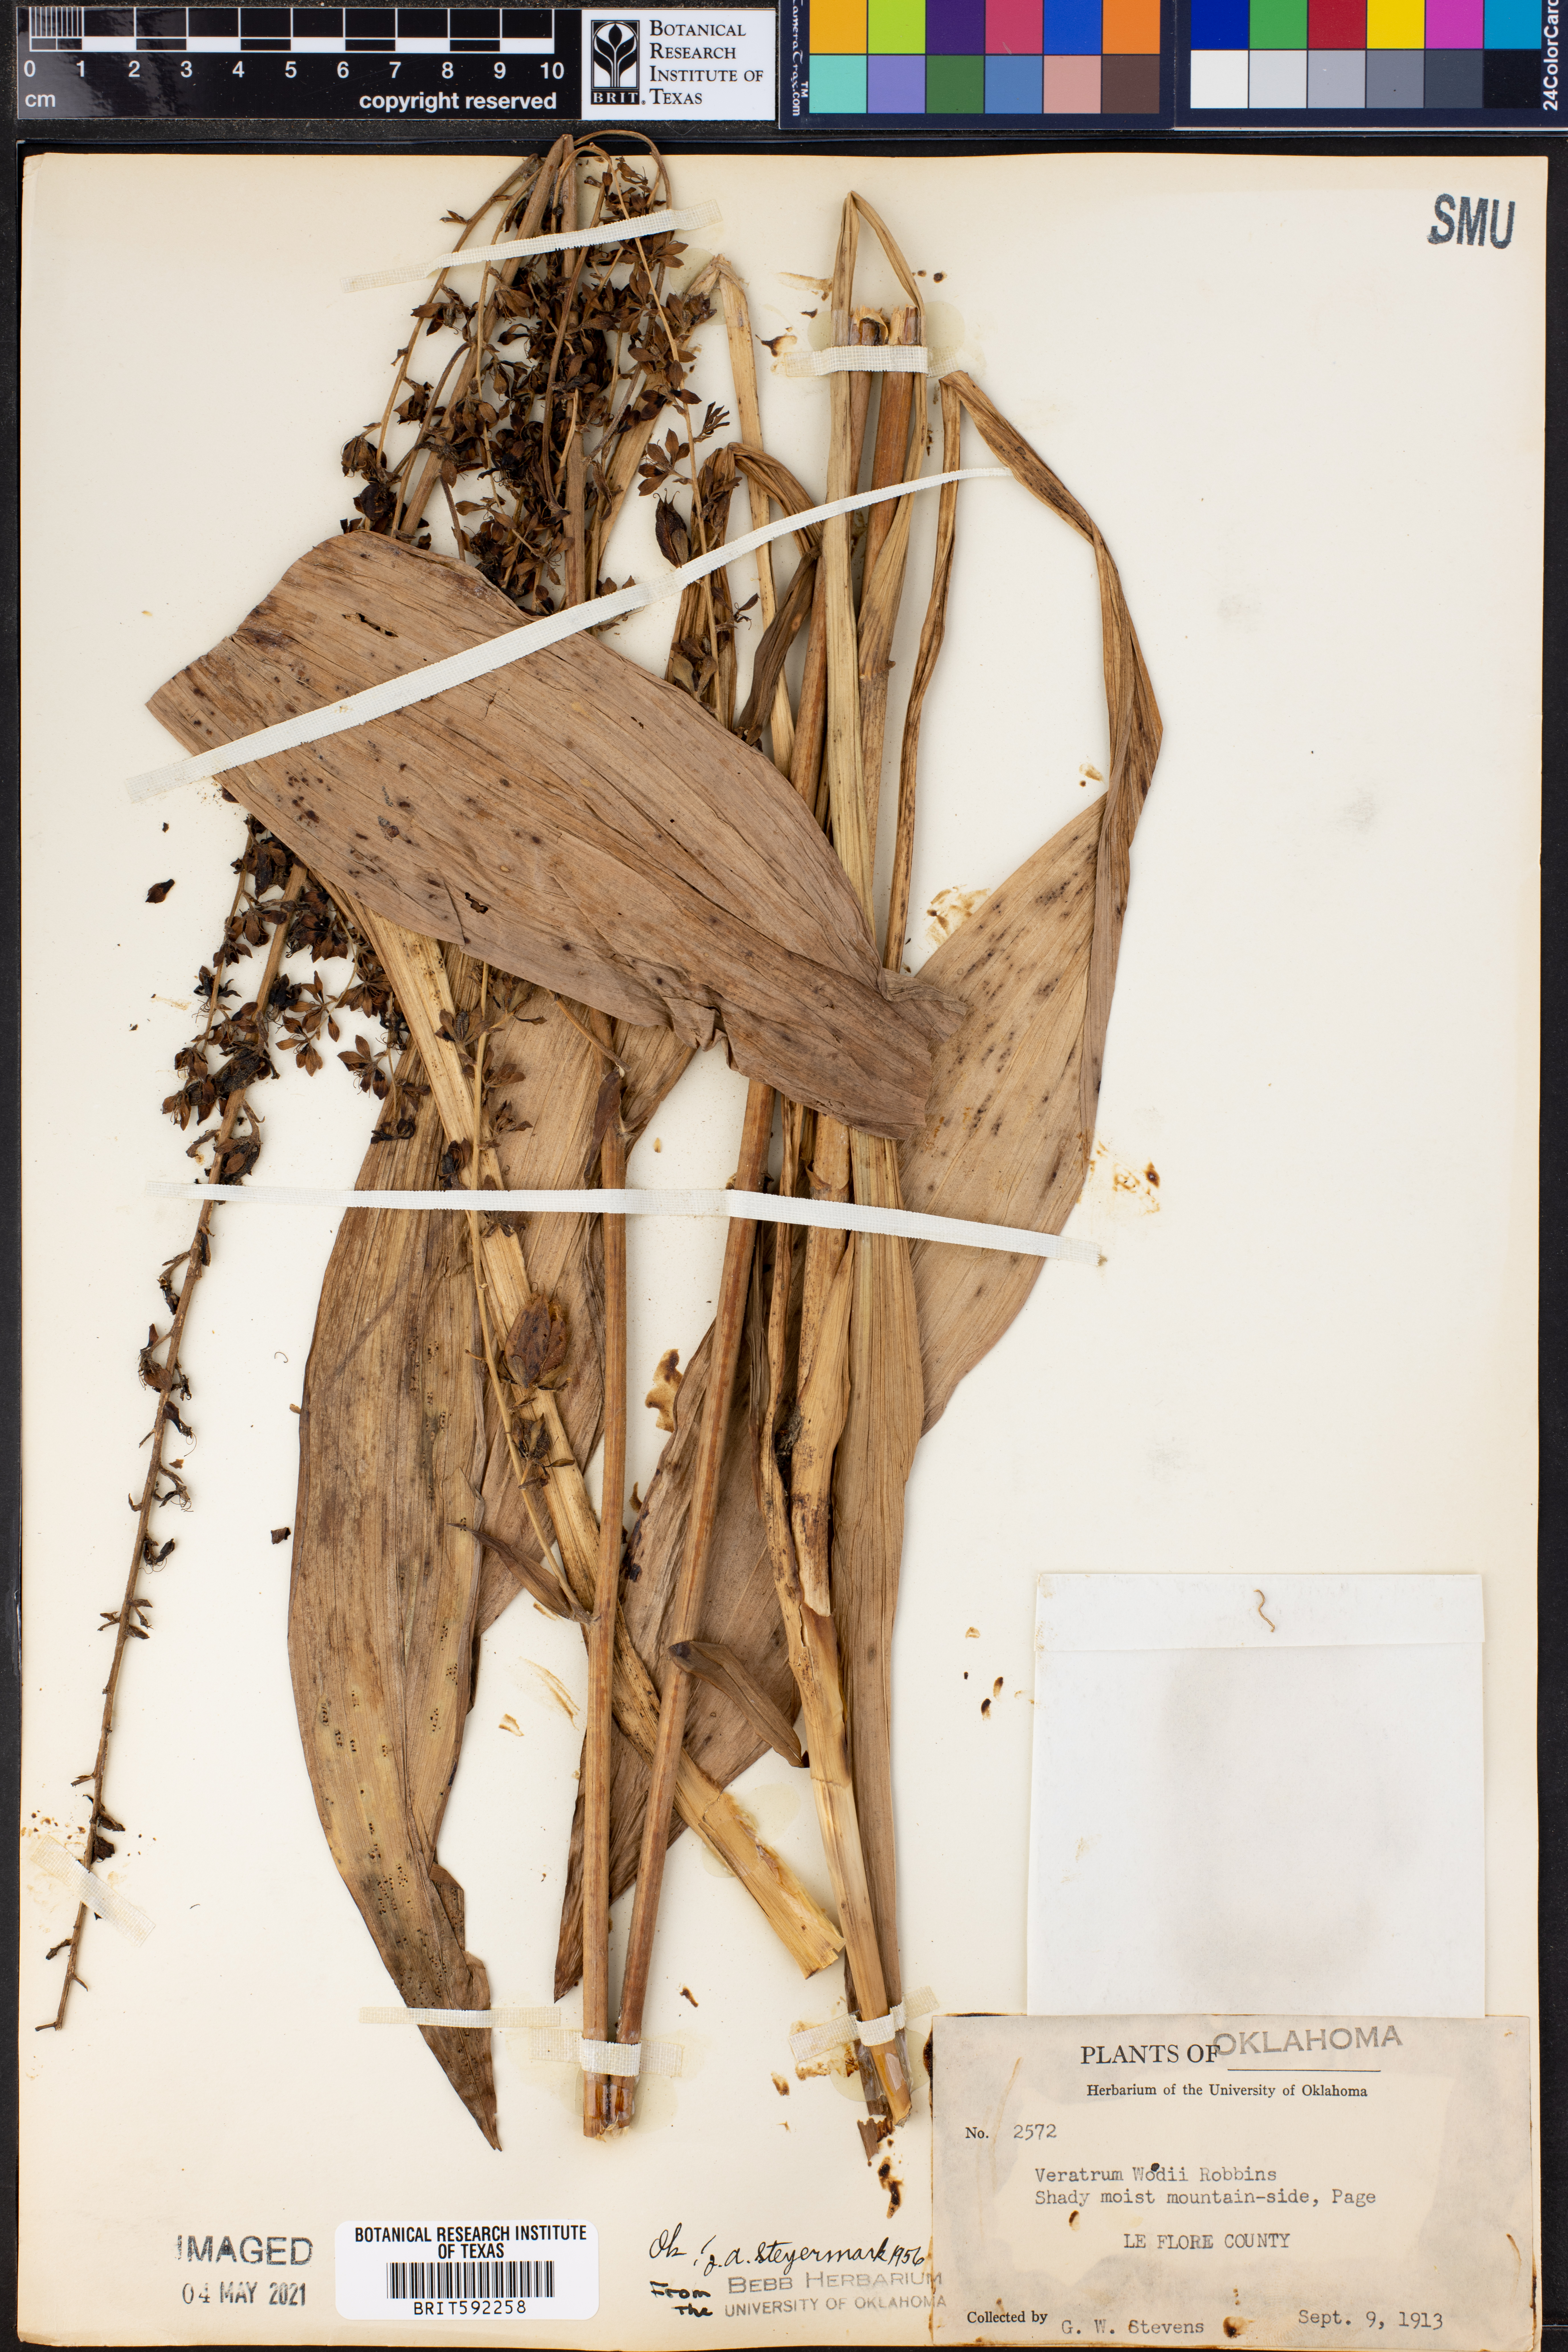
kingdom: Plantae
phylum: Tracheophyta
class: Liliopsida
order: Liliales
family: Melanthiaceae
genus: Melanthium
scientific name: Melanthium woodii
